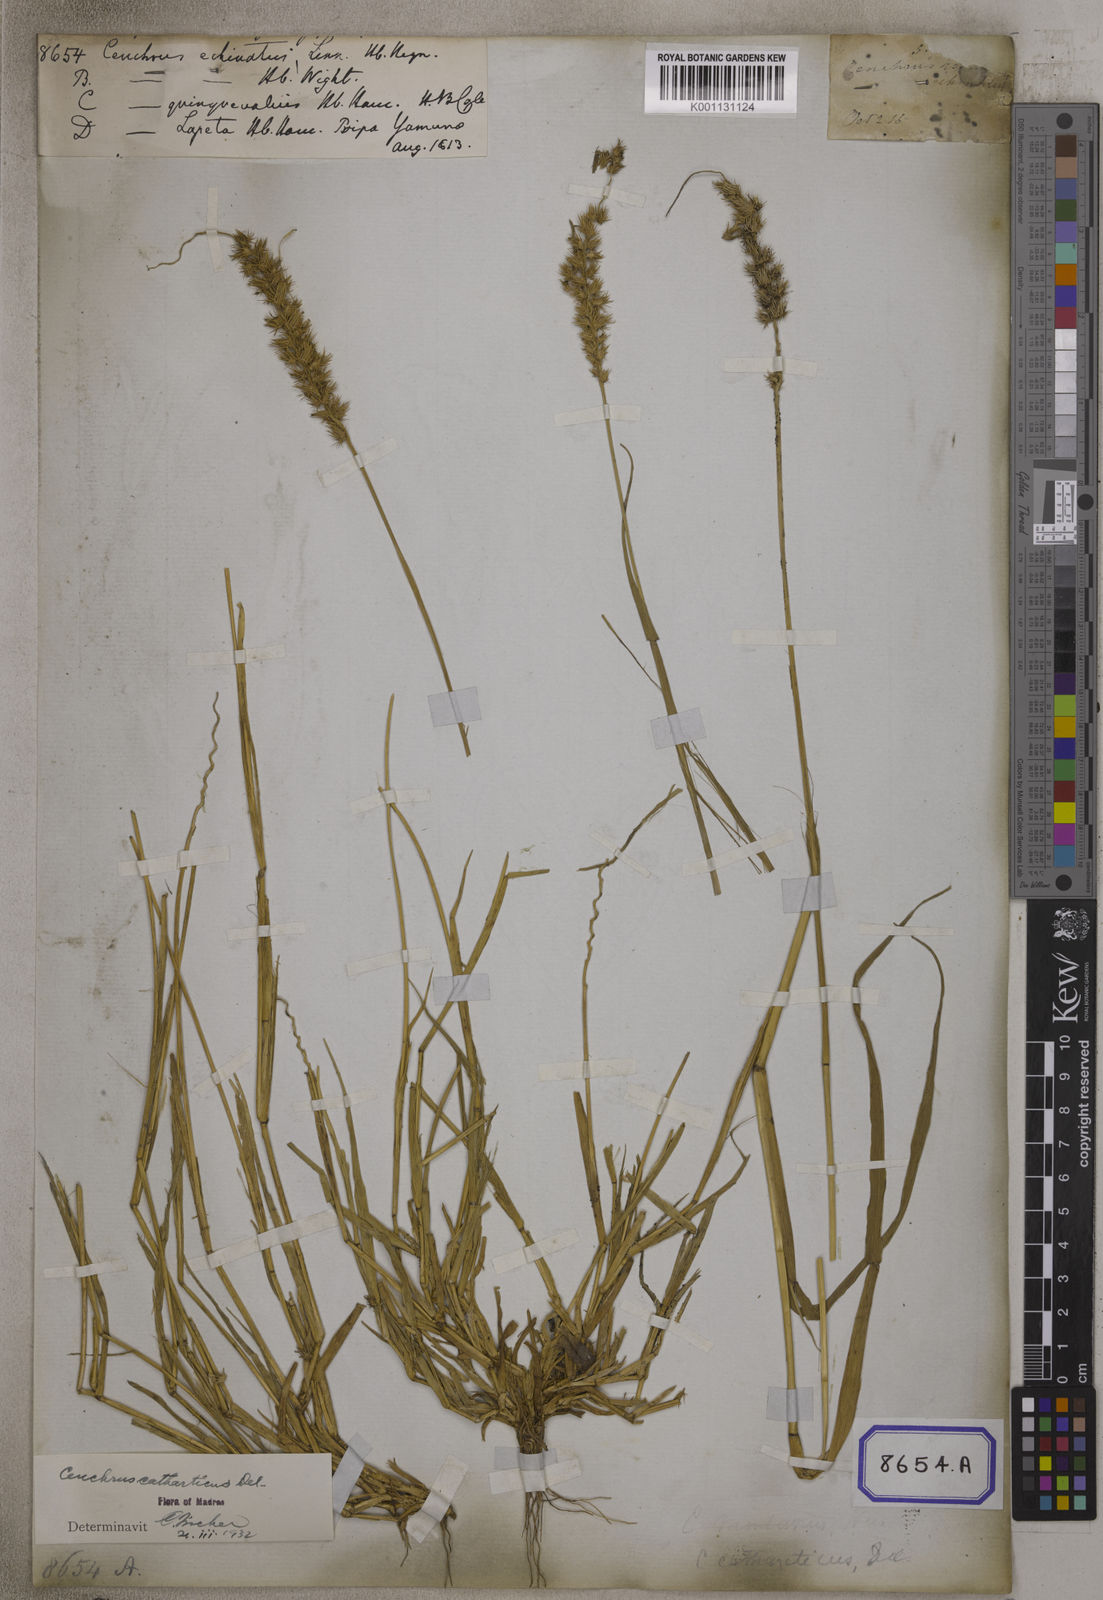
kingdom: Plantae
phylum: Tracheophyta
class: Liliopsida
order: Poales
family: Poaceae
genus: Cenchrus
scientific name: Cenchrus echinatus
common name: Southern sandbur
